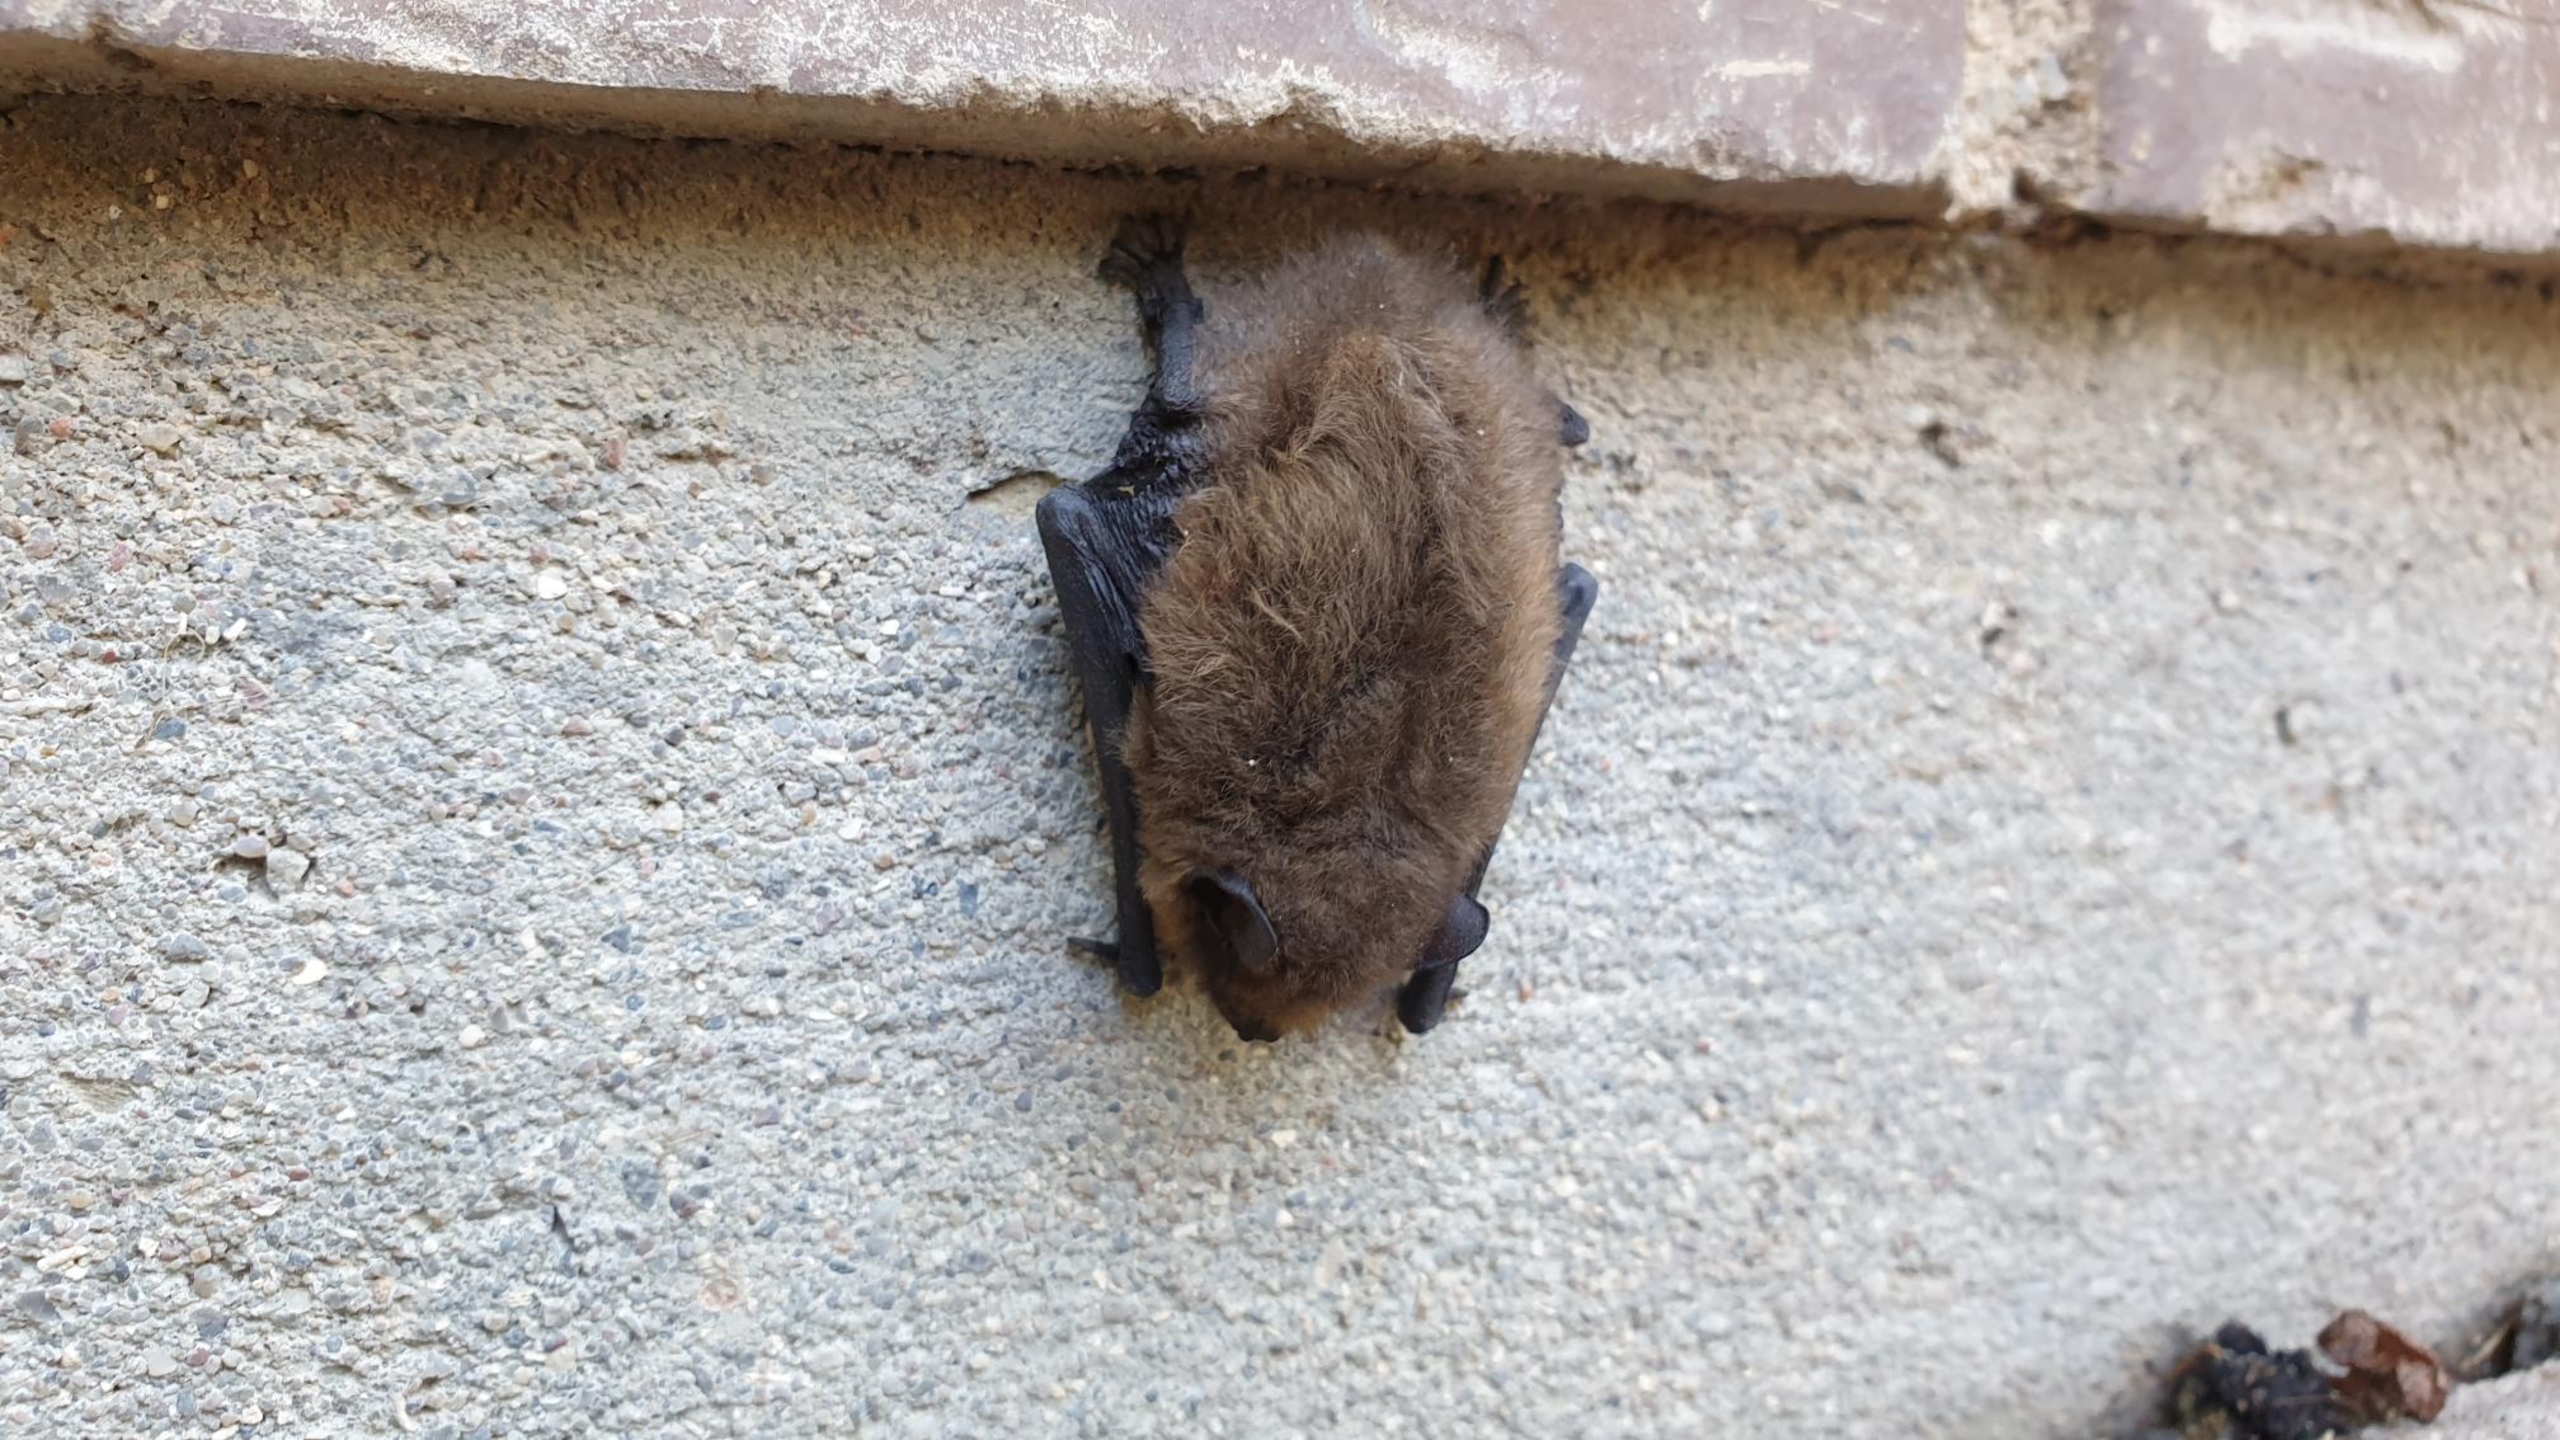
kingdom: Animalia
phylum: Chordata
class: Mammalia
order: Chiroptera
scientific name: Chiroptera
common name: Flagermus
